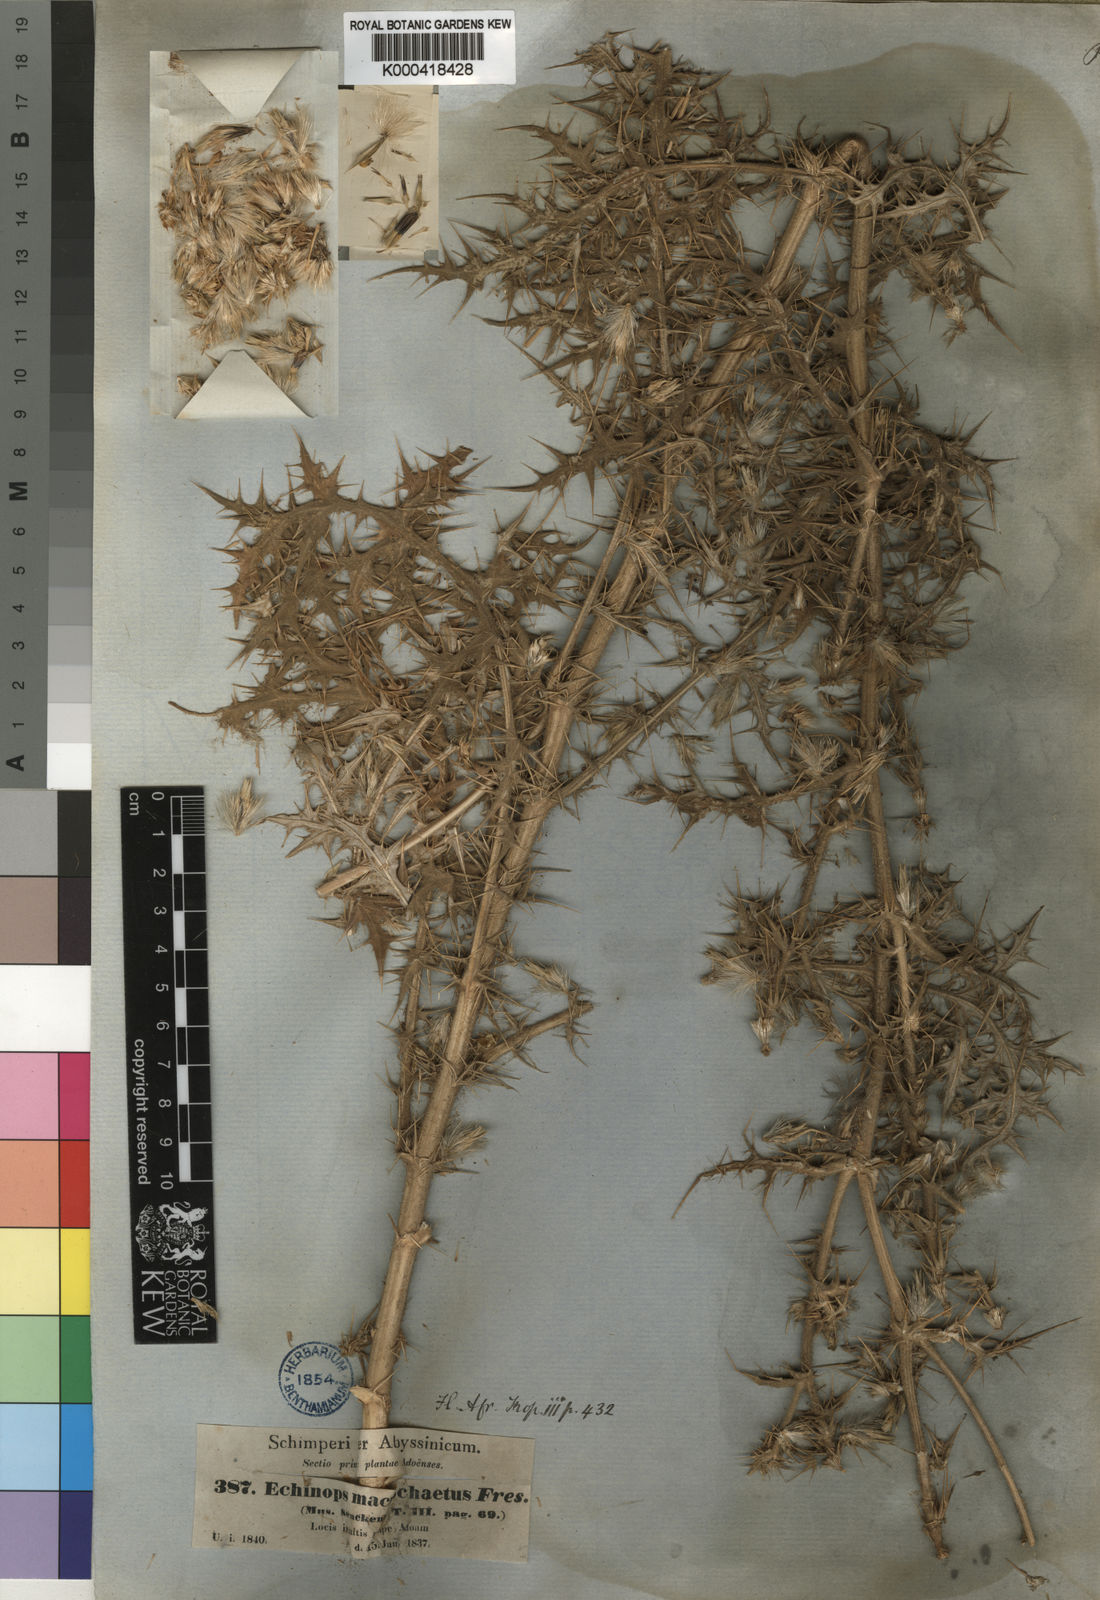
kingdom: Plantae
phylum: Tracheophyta
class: Magnoliopsida
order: Asterales
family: Asteraceae
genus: Echinops
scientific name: Echinops macrochaetus
